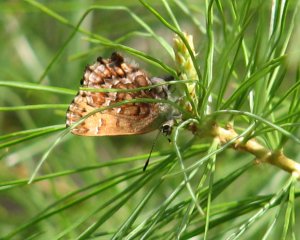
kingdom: Animalia
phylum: Arthropoda
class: Insecta
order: Lepidoptera
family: Lycaenidae
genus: Incisalia
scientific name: Incisalia niphon
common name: Eastern Pine Elfin
